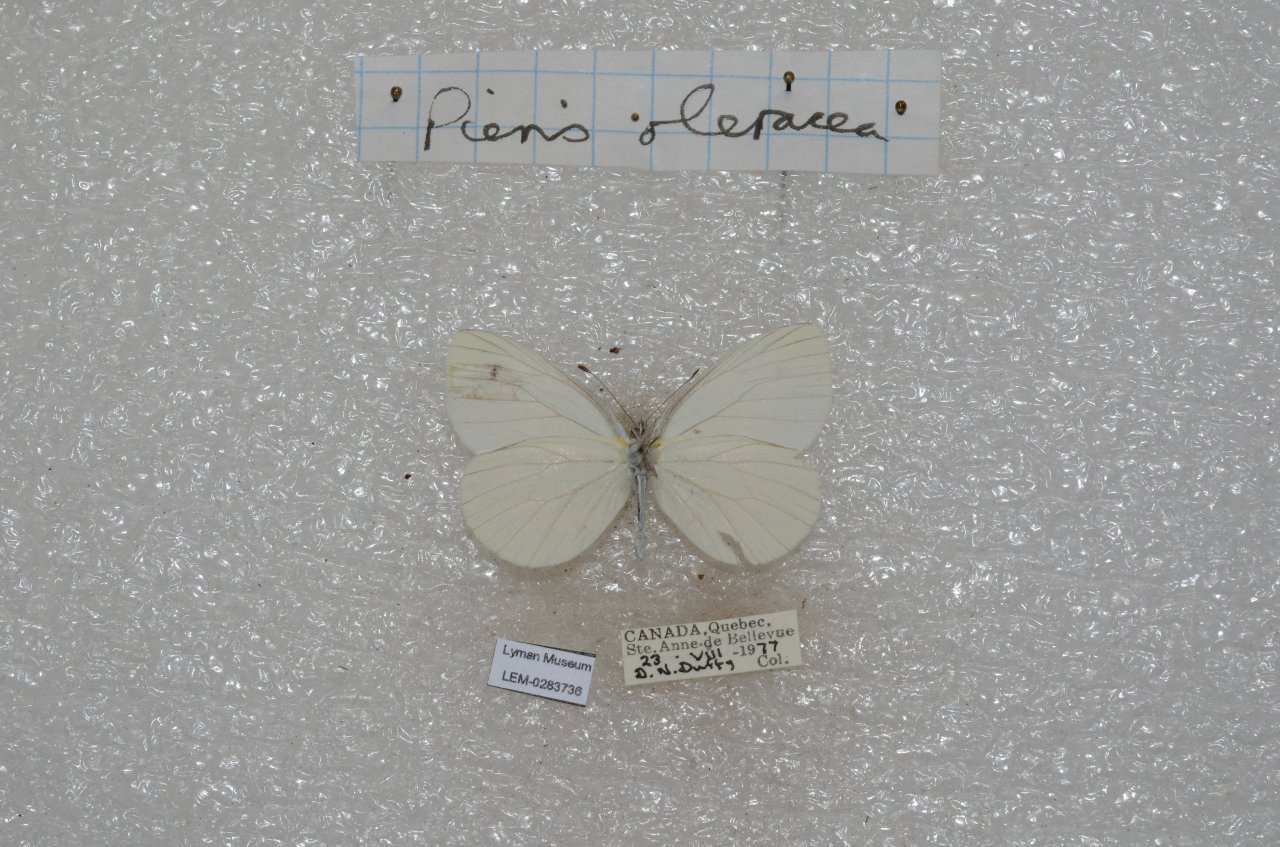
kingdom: Animalia
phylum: Arthropoda
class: Insecta
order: Lepidoptera
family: Pieridae
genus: Pieris
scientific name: Pieris oleracea
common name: Mustard White
